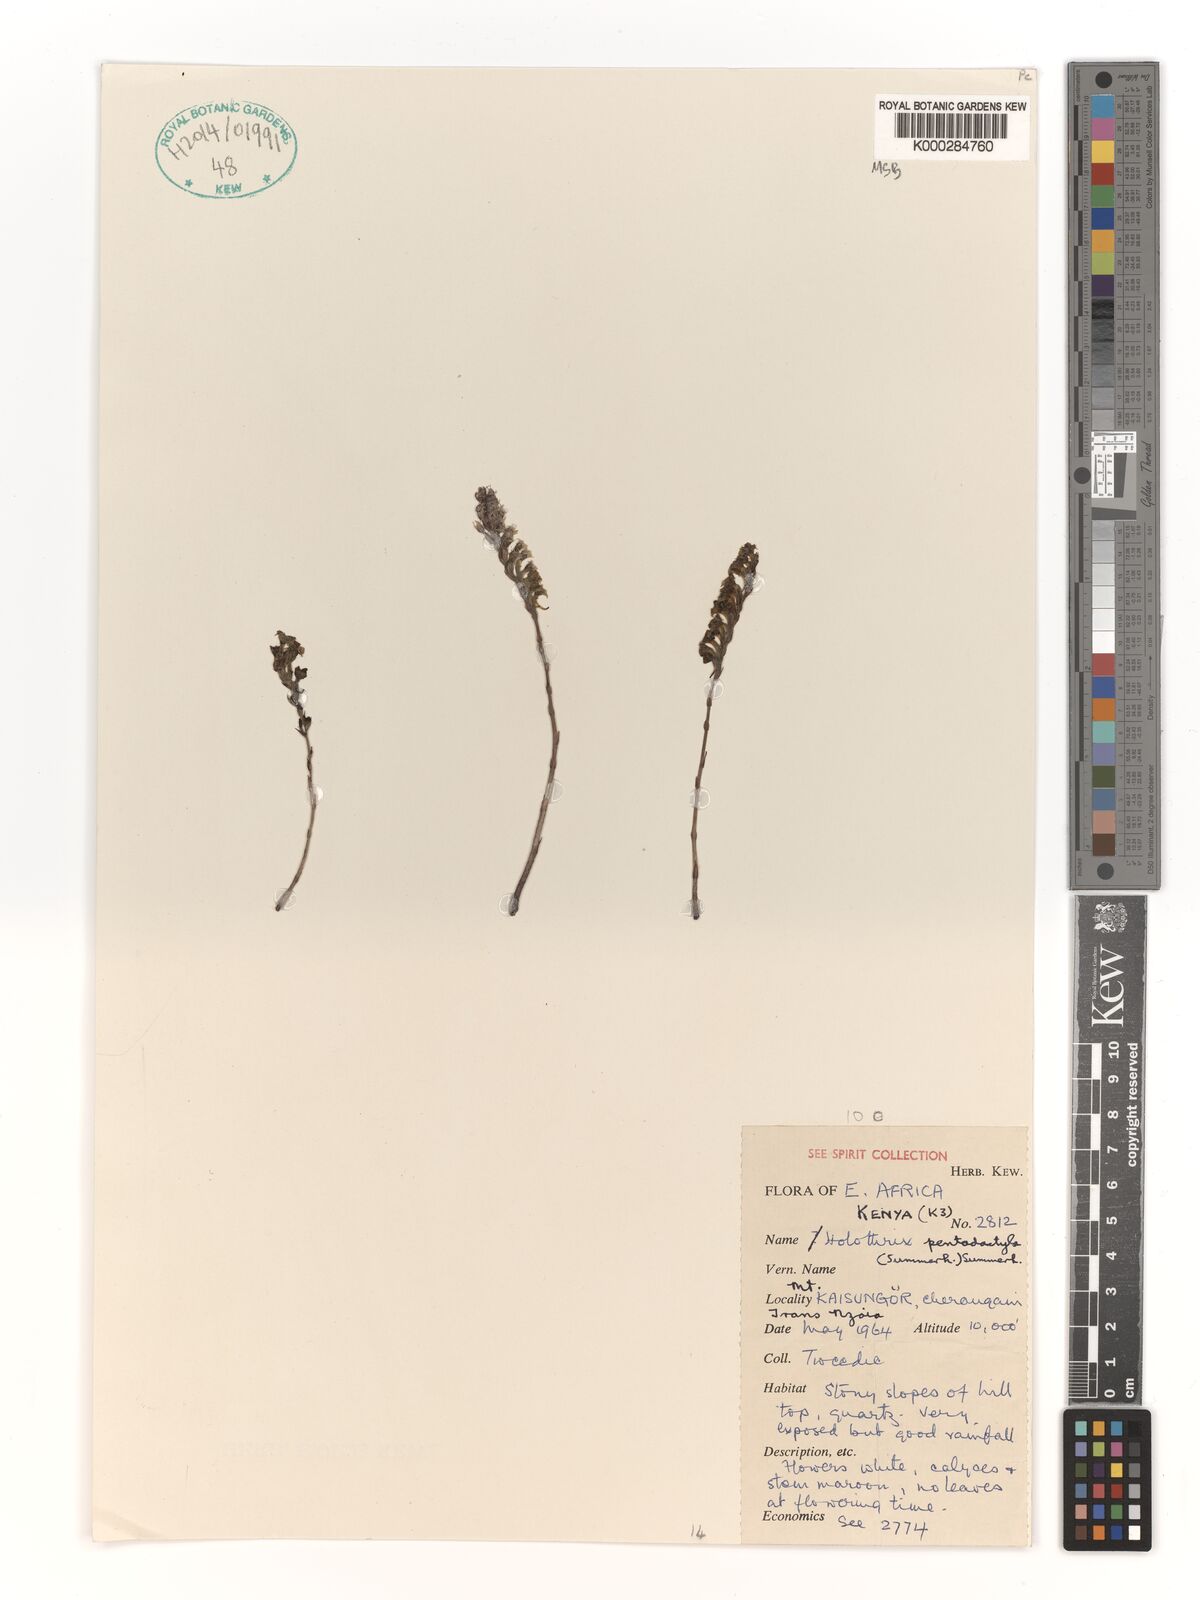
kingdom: Plantae
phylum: Tracheophyta
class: Liliopsida
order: Asparagales
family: Orchidaceae
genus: Holothrix
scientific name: Holothrix pentadactyla
